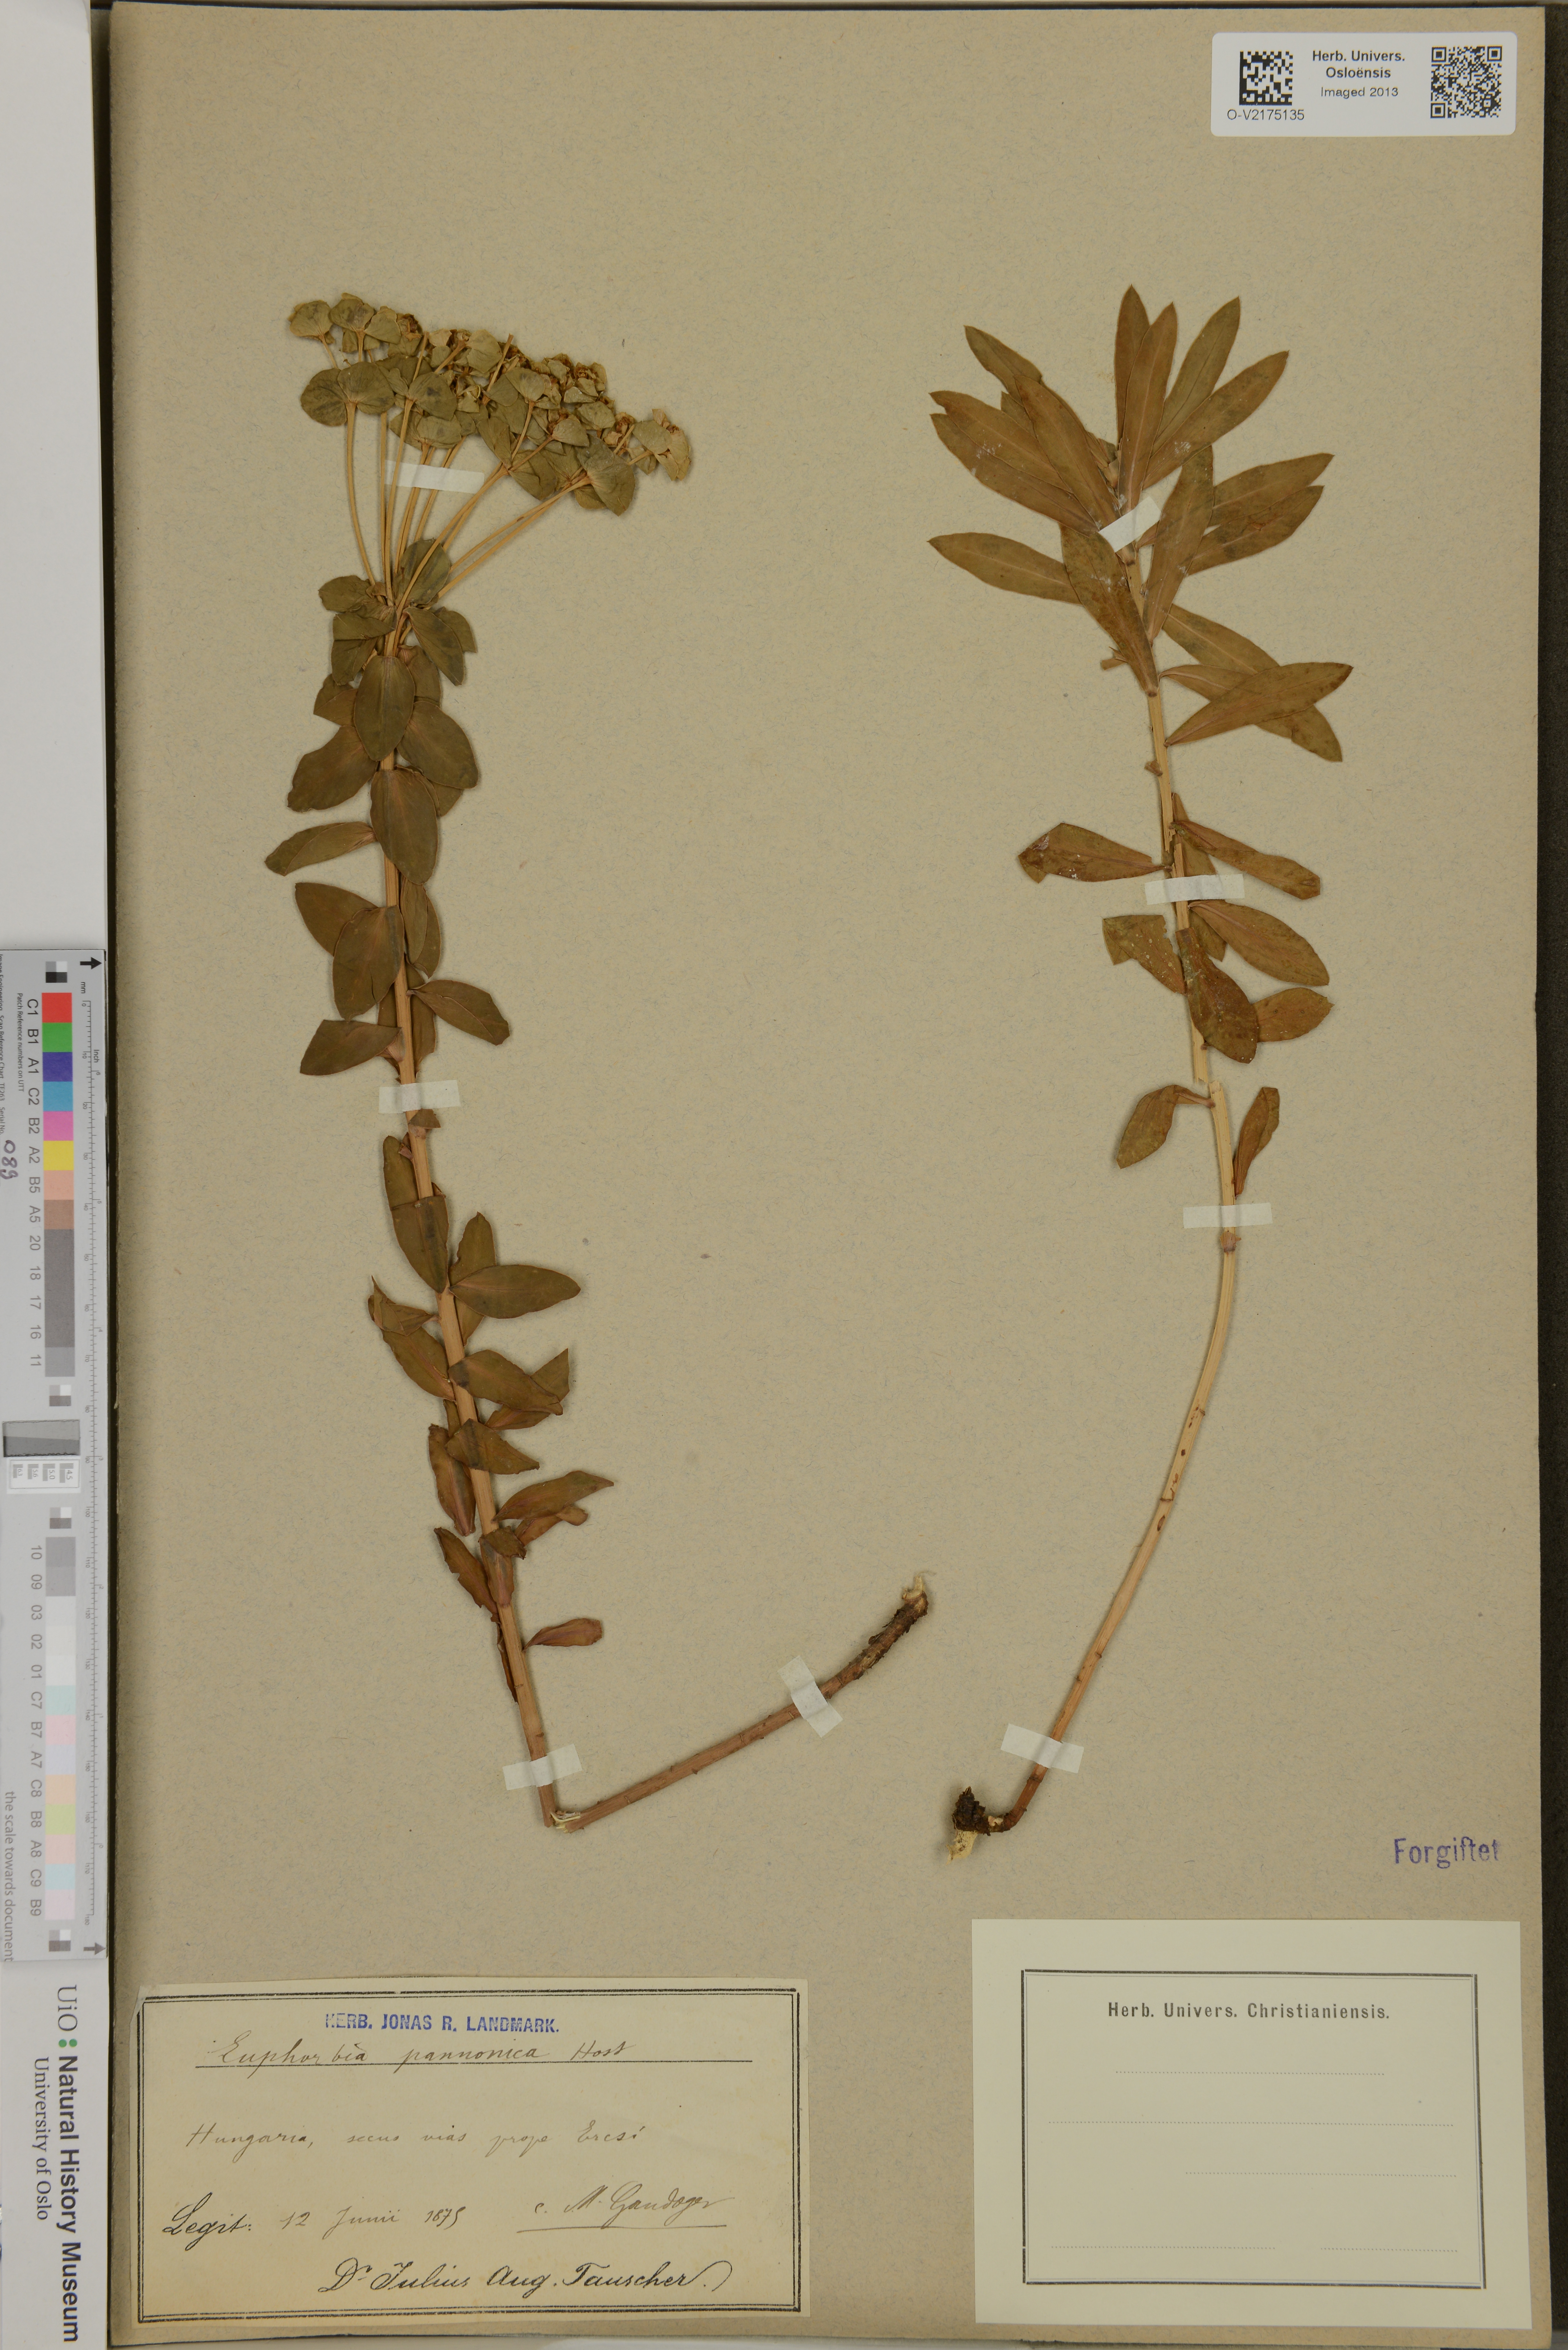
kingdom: Plantae
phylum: Tracheophyta
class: Magnoliopsida
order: Malpighiales
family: Euphorbiaceae
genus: Euphorbia
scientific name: Euphorbia pannonica
